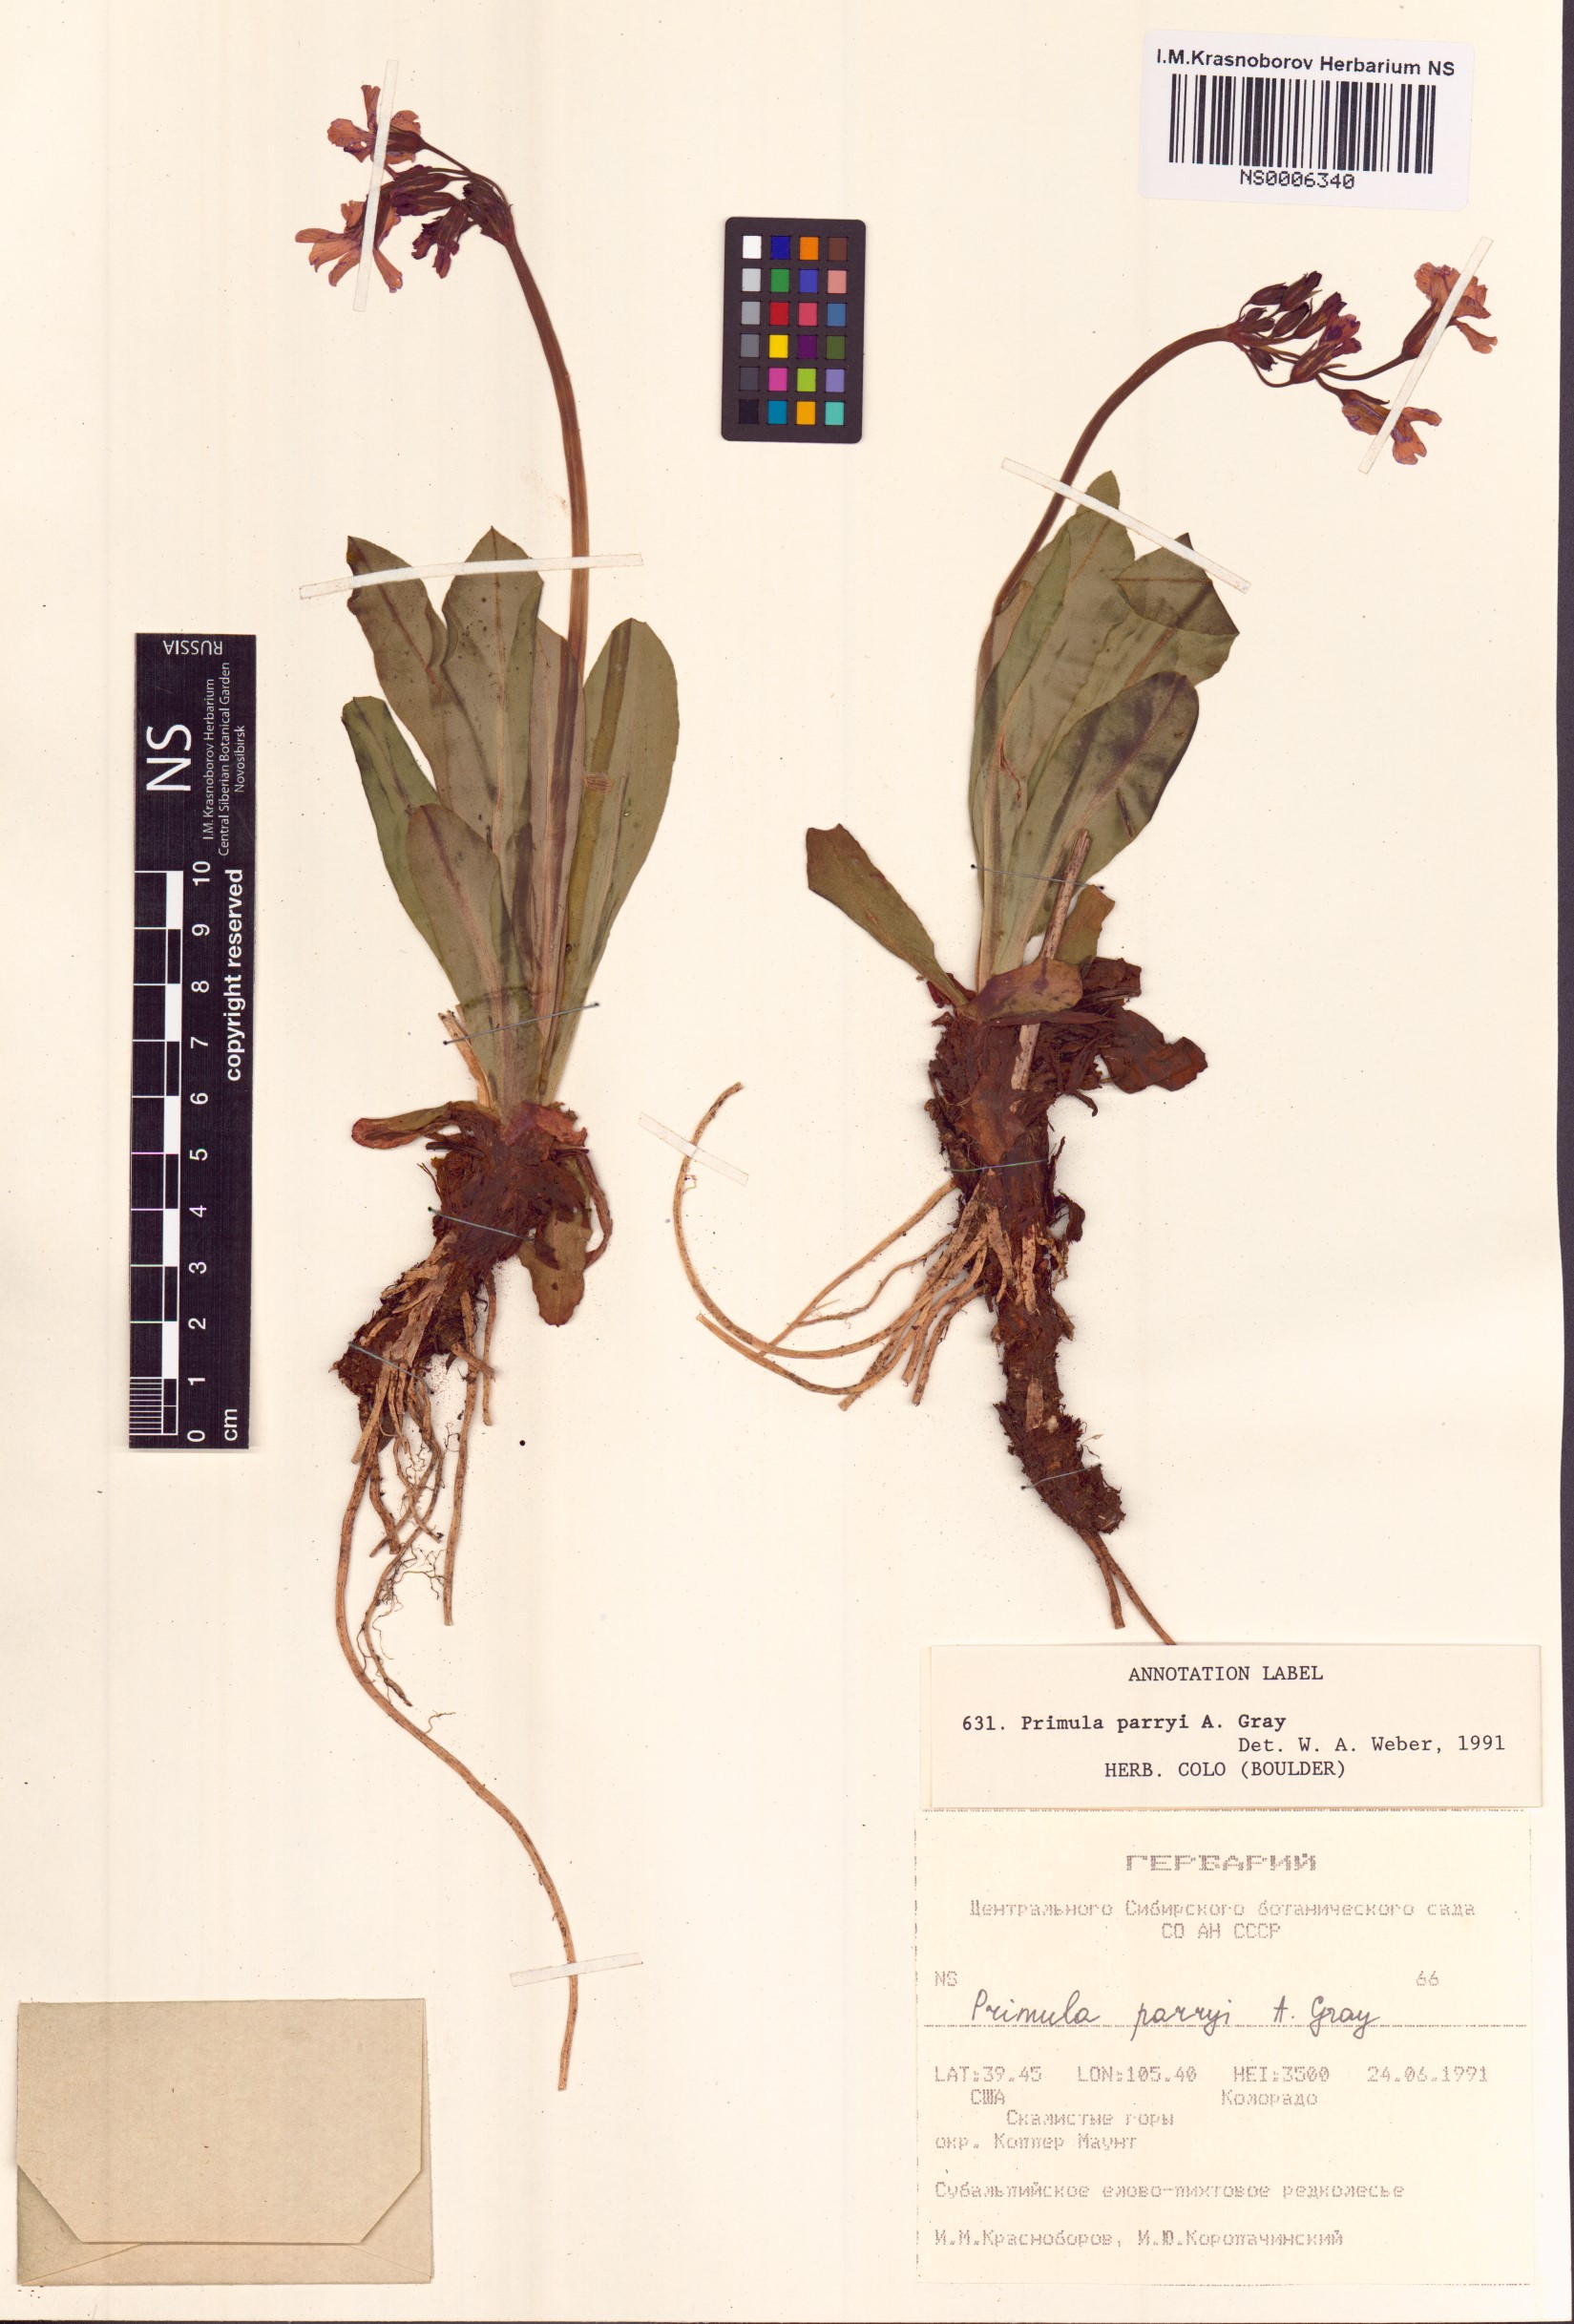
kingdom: Plantae
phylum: Tracheophyta
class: Magnoliopsida
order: Ericales
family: Primulaceae
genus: Primula
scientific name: Primula parryi
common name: Parry's primrose
